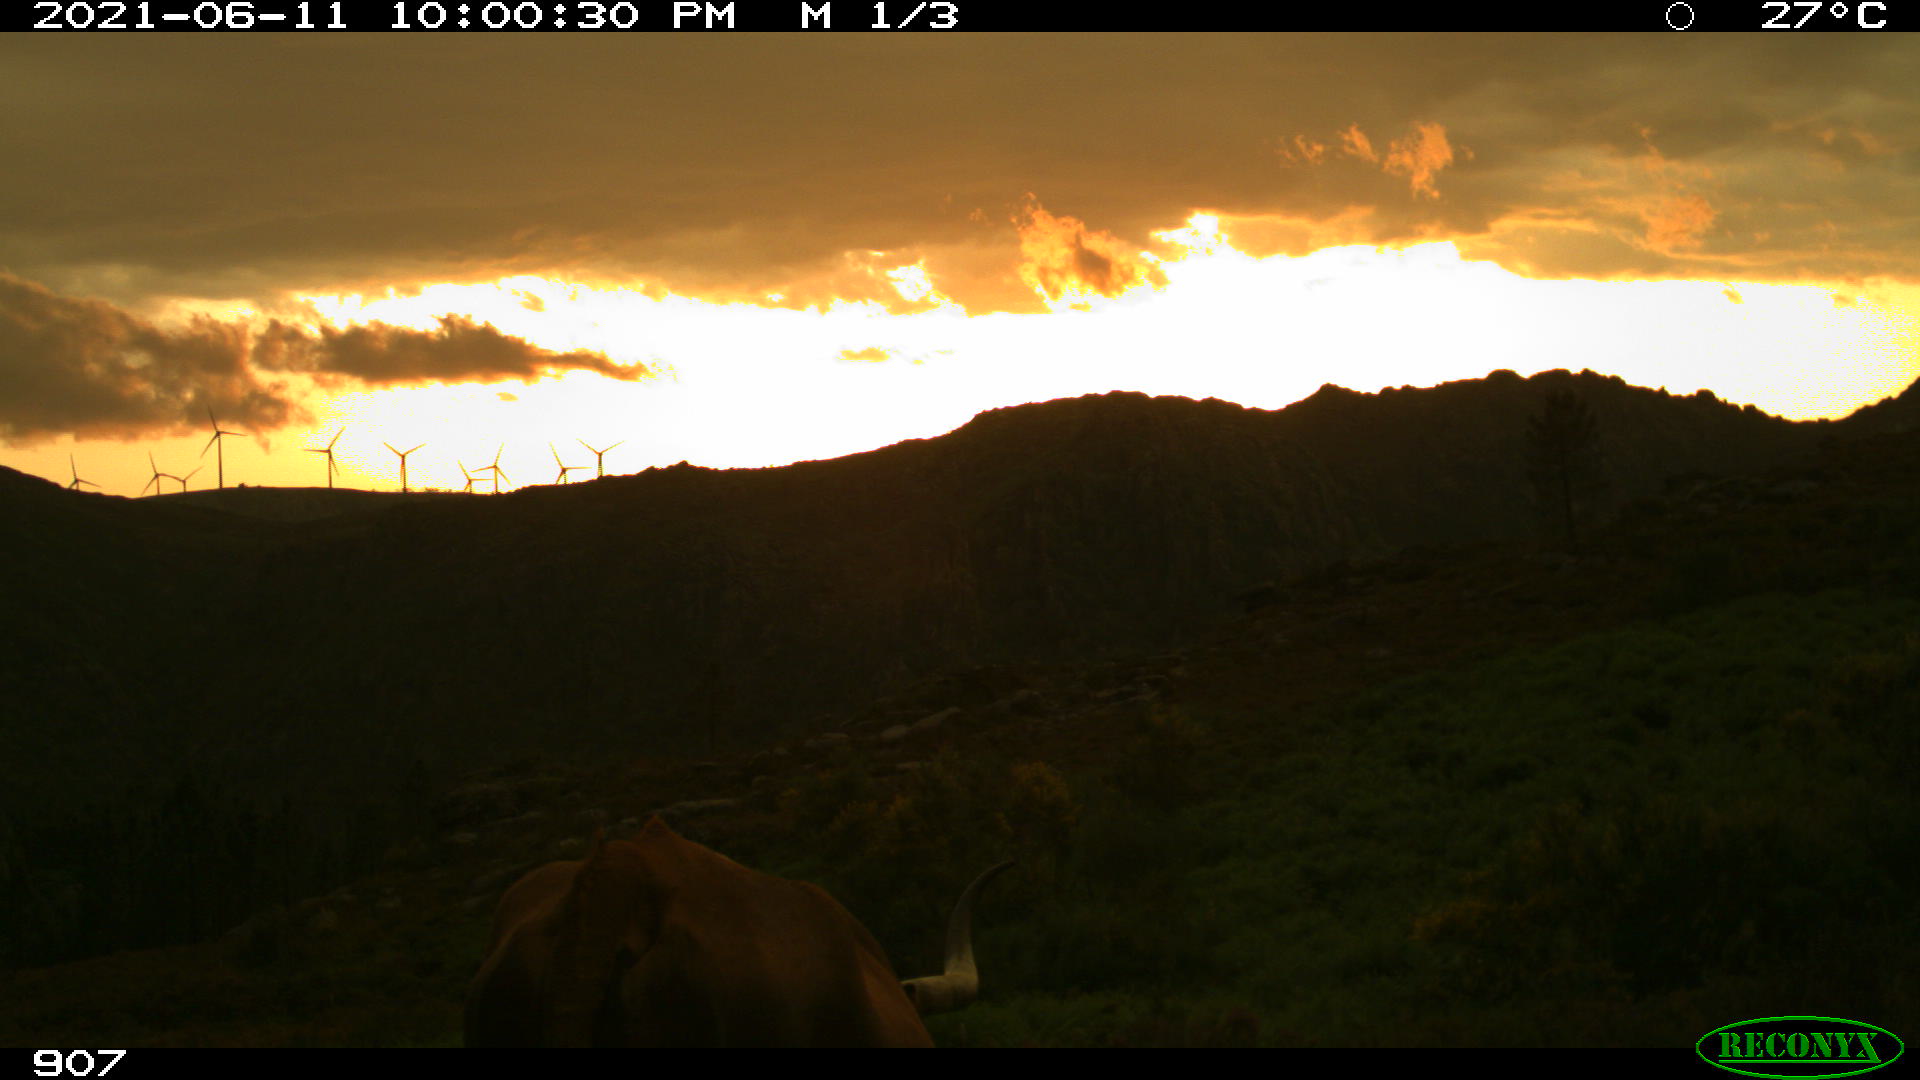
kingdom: Animalia
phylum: Chordata
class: Mammalia
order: Artiodactyla
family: Bovidae
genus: Bos
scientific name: Bos taurus
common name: Domesticated cattle
